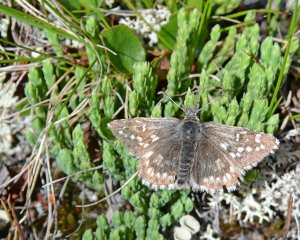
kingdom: Animalia
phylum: Arthropoda
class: Insecta
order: Lepidoptera
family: Hesperiidae
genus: Pyrgus
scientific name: Pyrgus centaureae
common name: Grizzled Skipper
